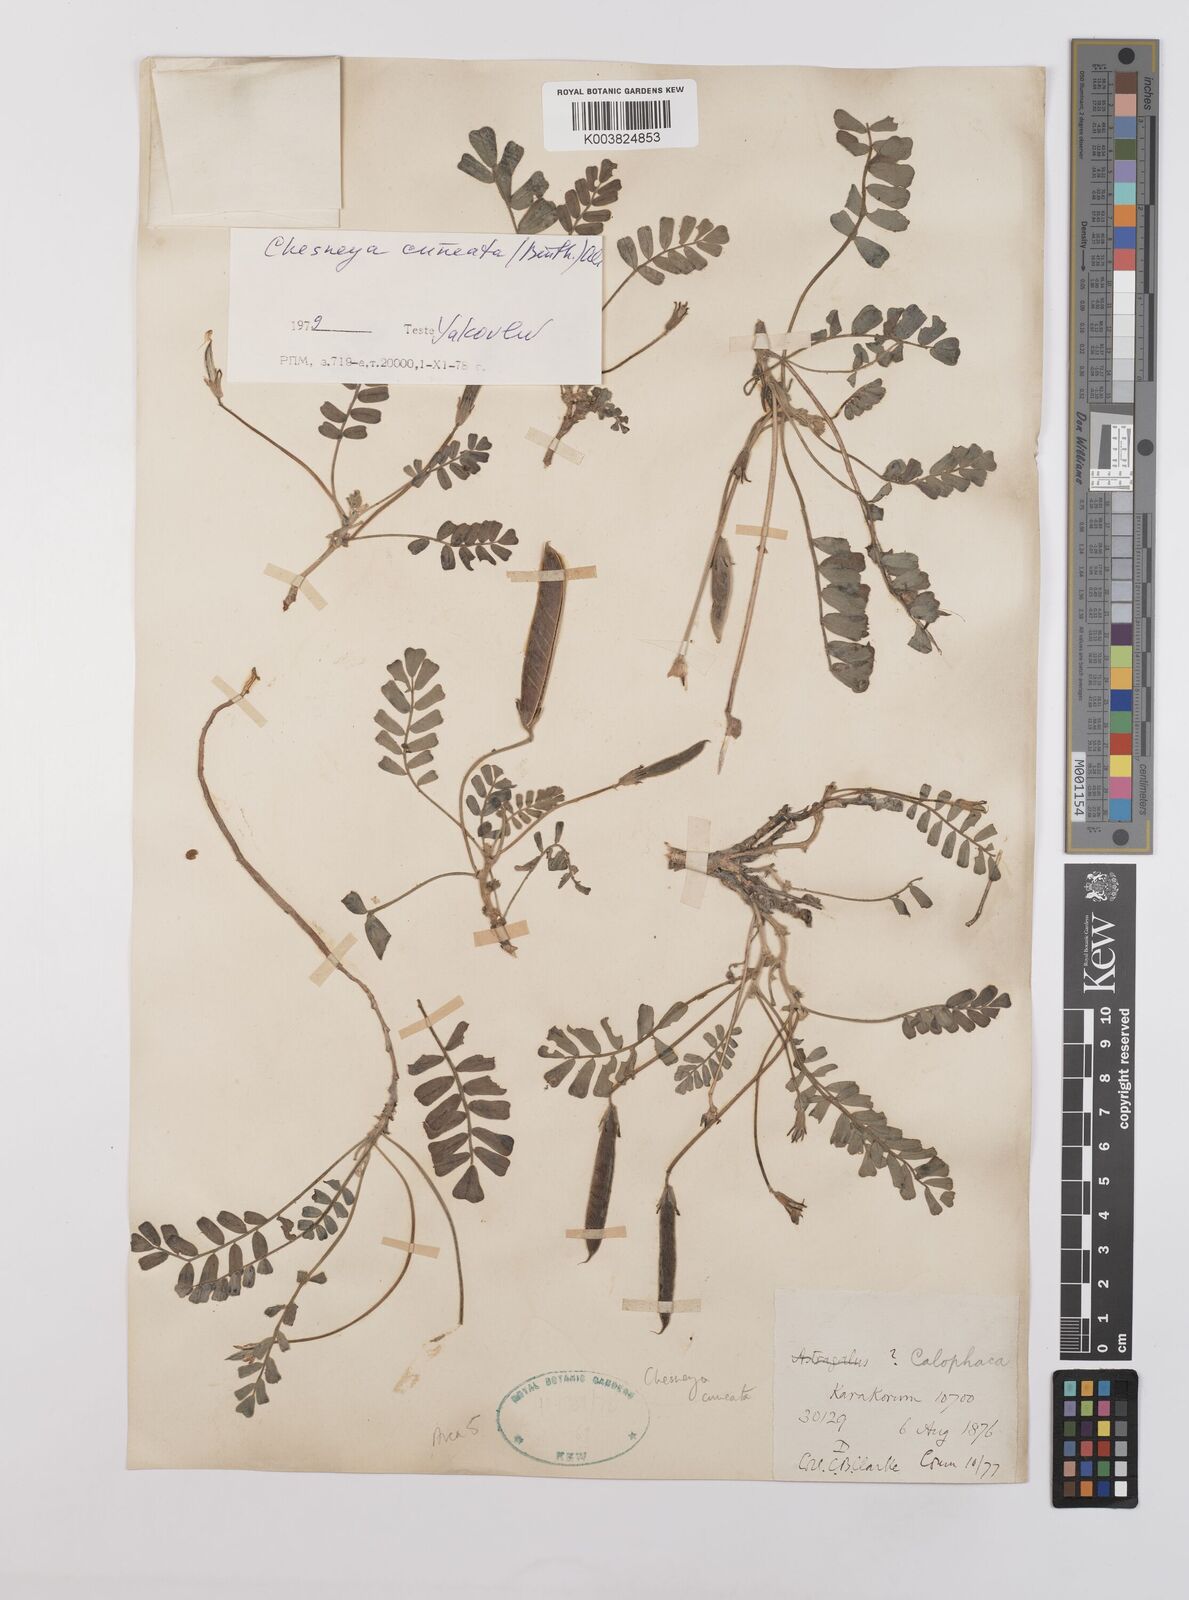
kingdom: Plantae
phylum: Tracheophyta
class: Magnoliopsida
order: Fabales
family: Fabaceae
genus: Chesneya
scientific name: Chesneya cuneata
